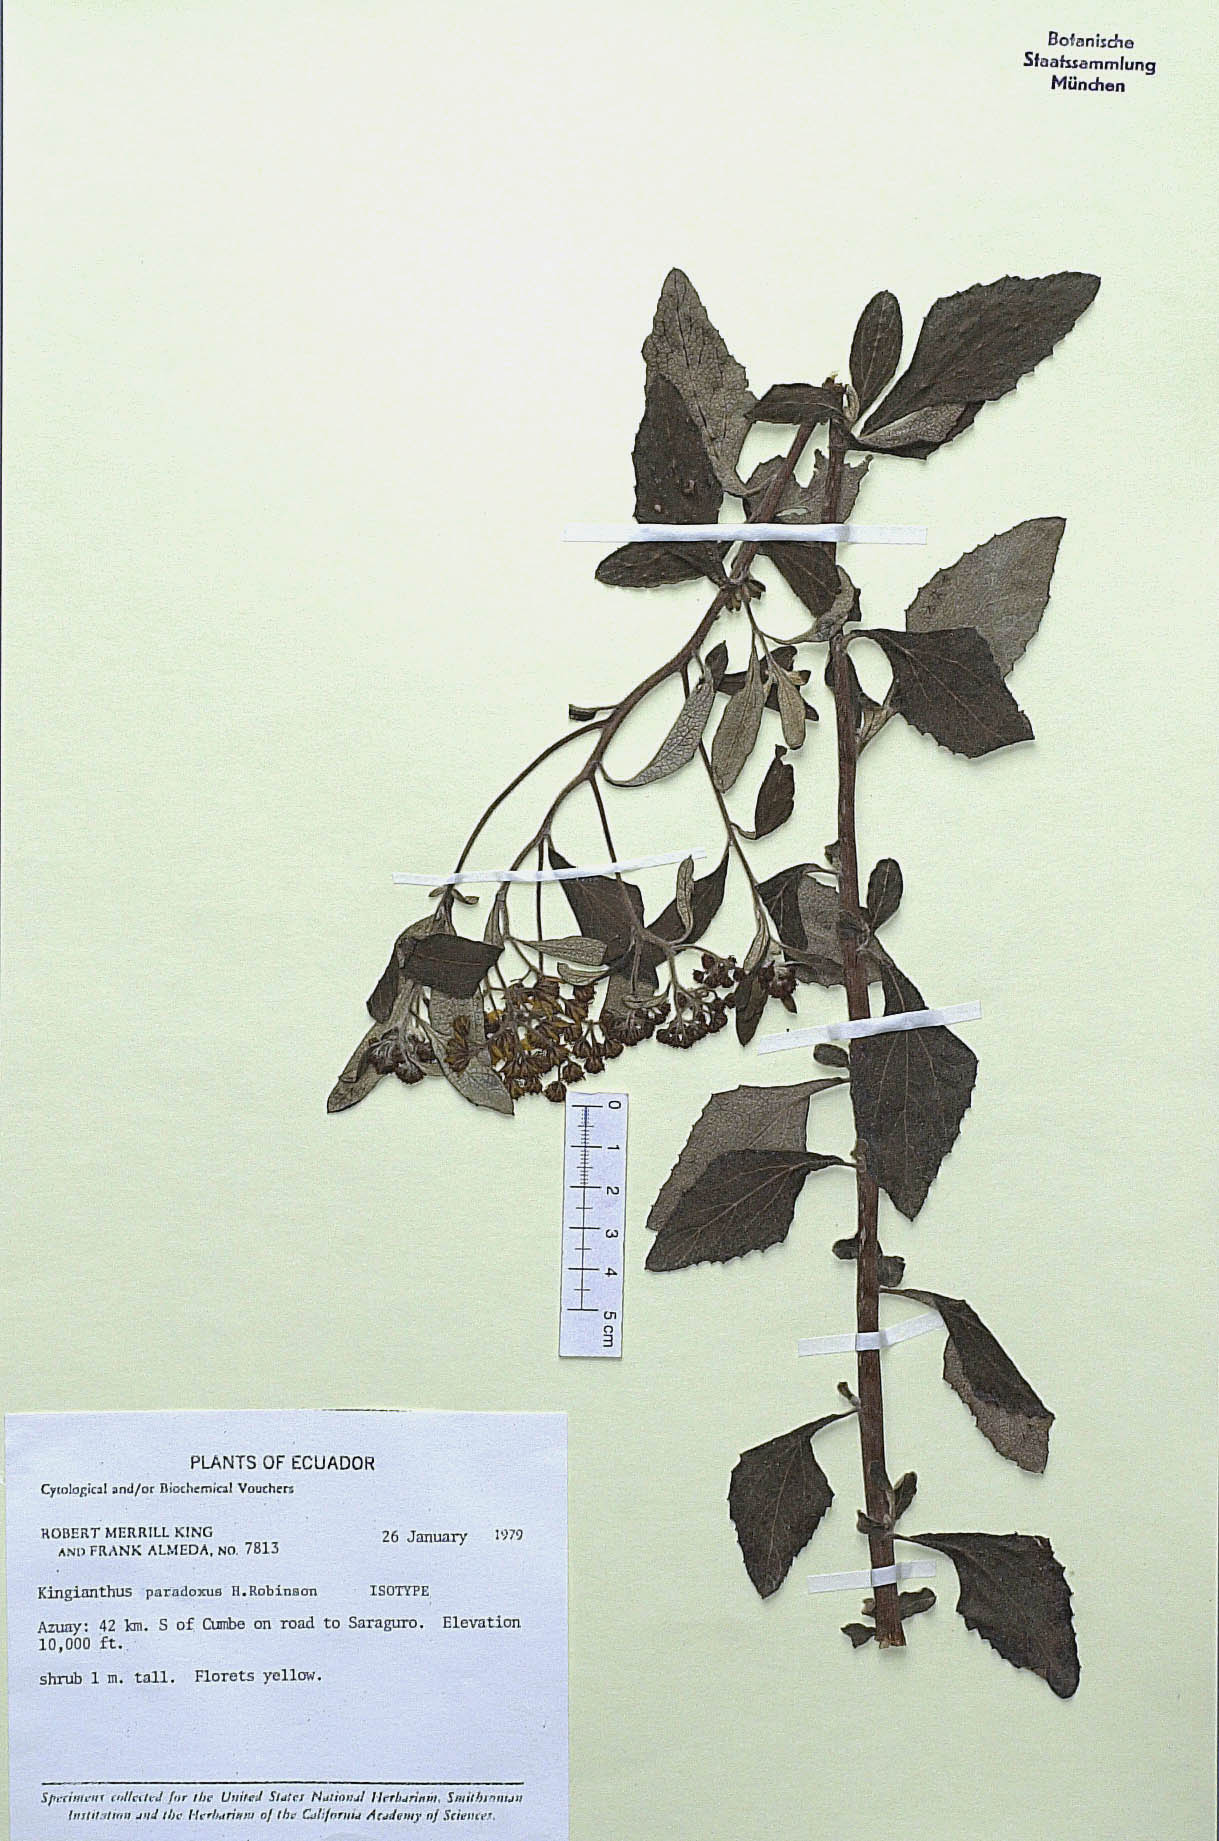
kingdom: Plantae
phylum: Tracheophyta
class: Magnoliopsida
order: Asterales
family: Asteraceae
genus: Kingianthus
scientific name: Kingianthus paradoxus
